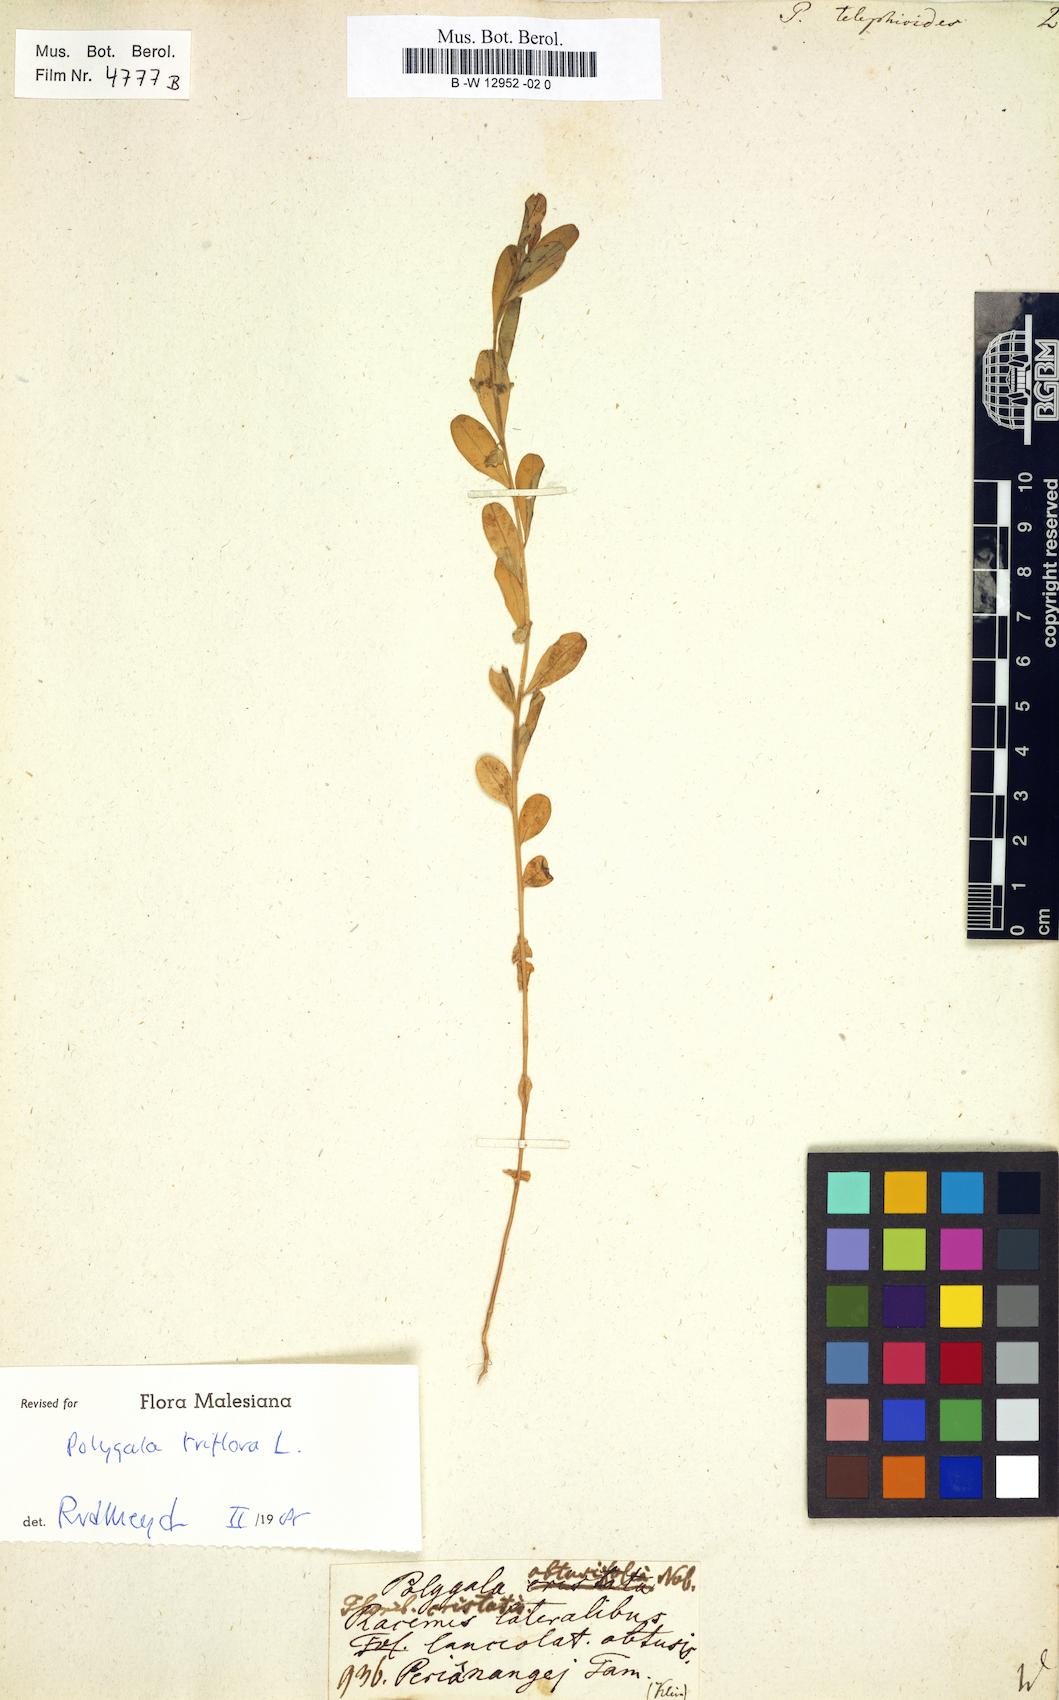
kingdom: Plantae
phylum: Tracheophyta
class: Magnoliopsida
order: Fabales
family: Polygalaceae
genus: Polygala
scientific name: Polygala telephioides
